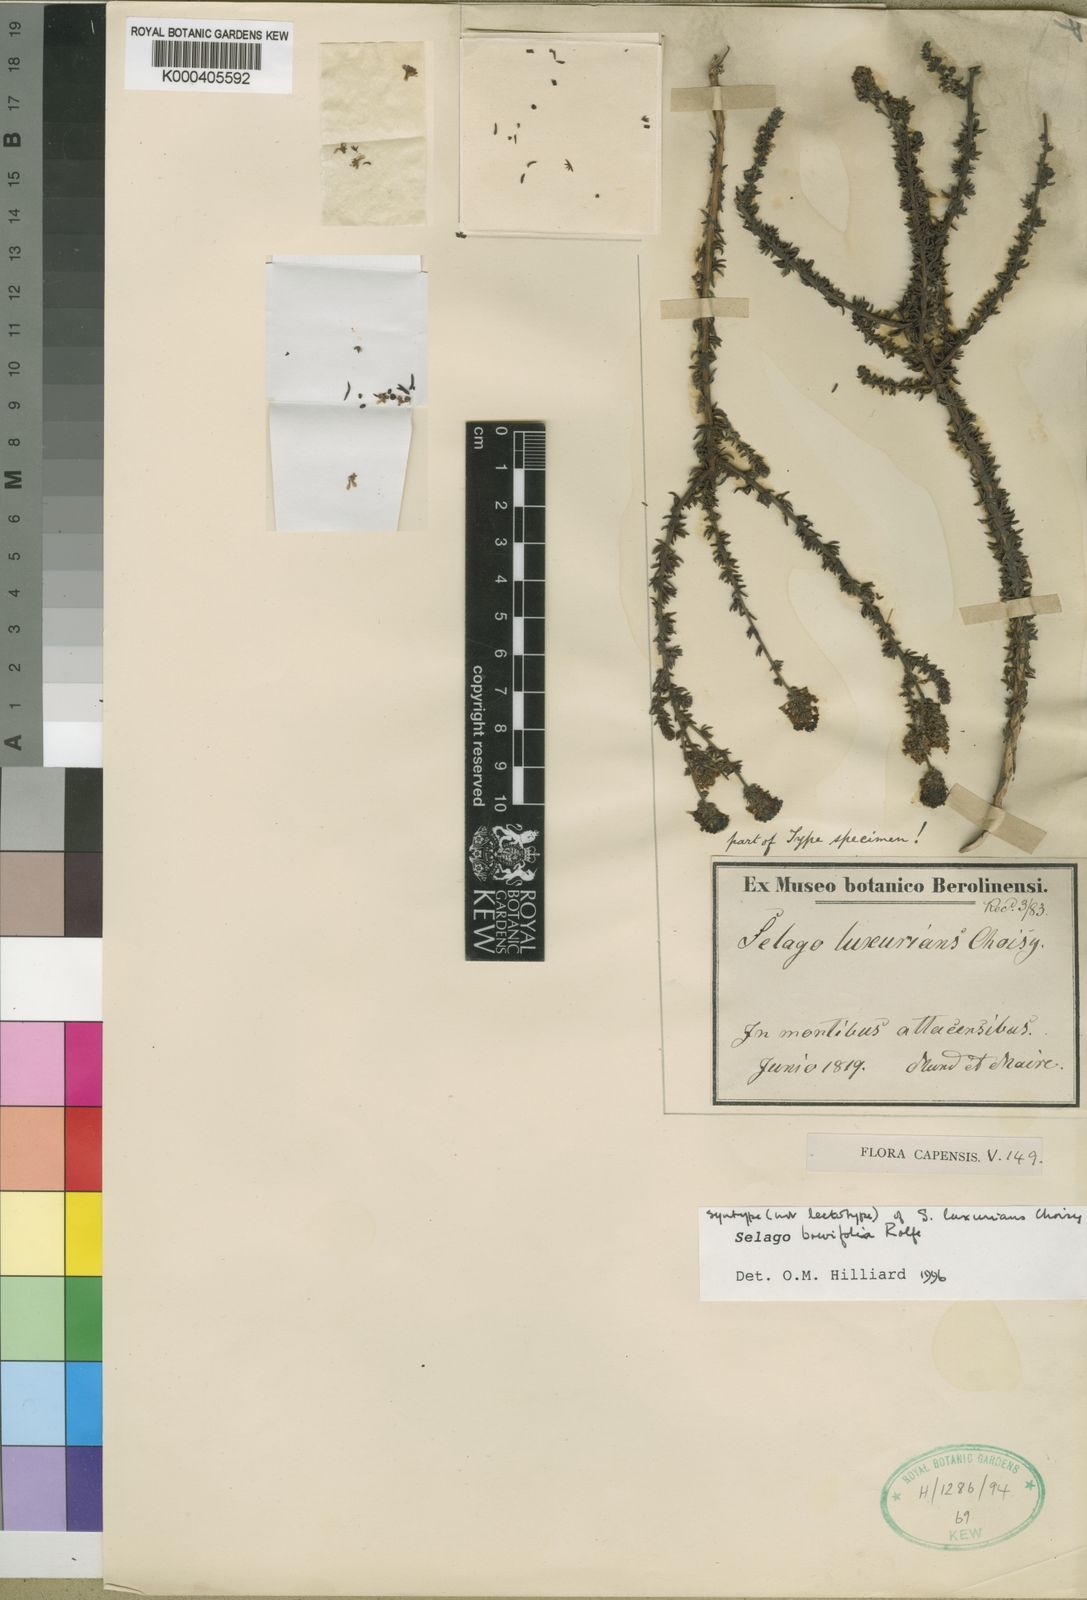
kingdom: Plantae
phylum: Tracheophyta
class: Magnoliopsida
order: Lamiales
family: Scrophulariaceae
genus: Selago
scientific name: Selago luxurians
